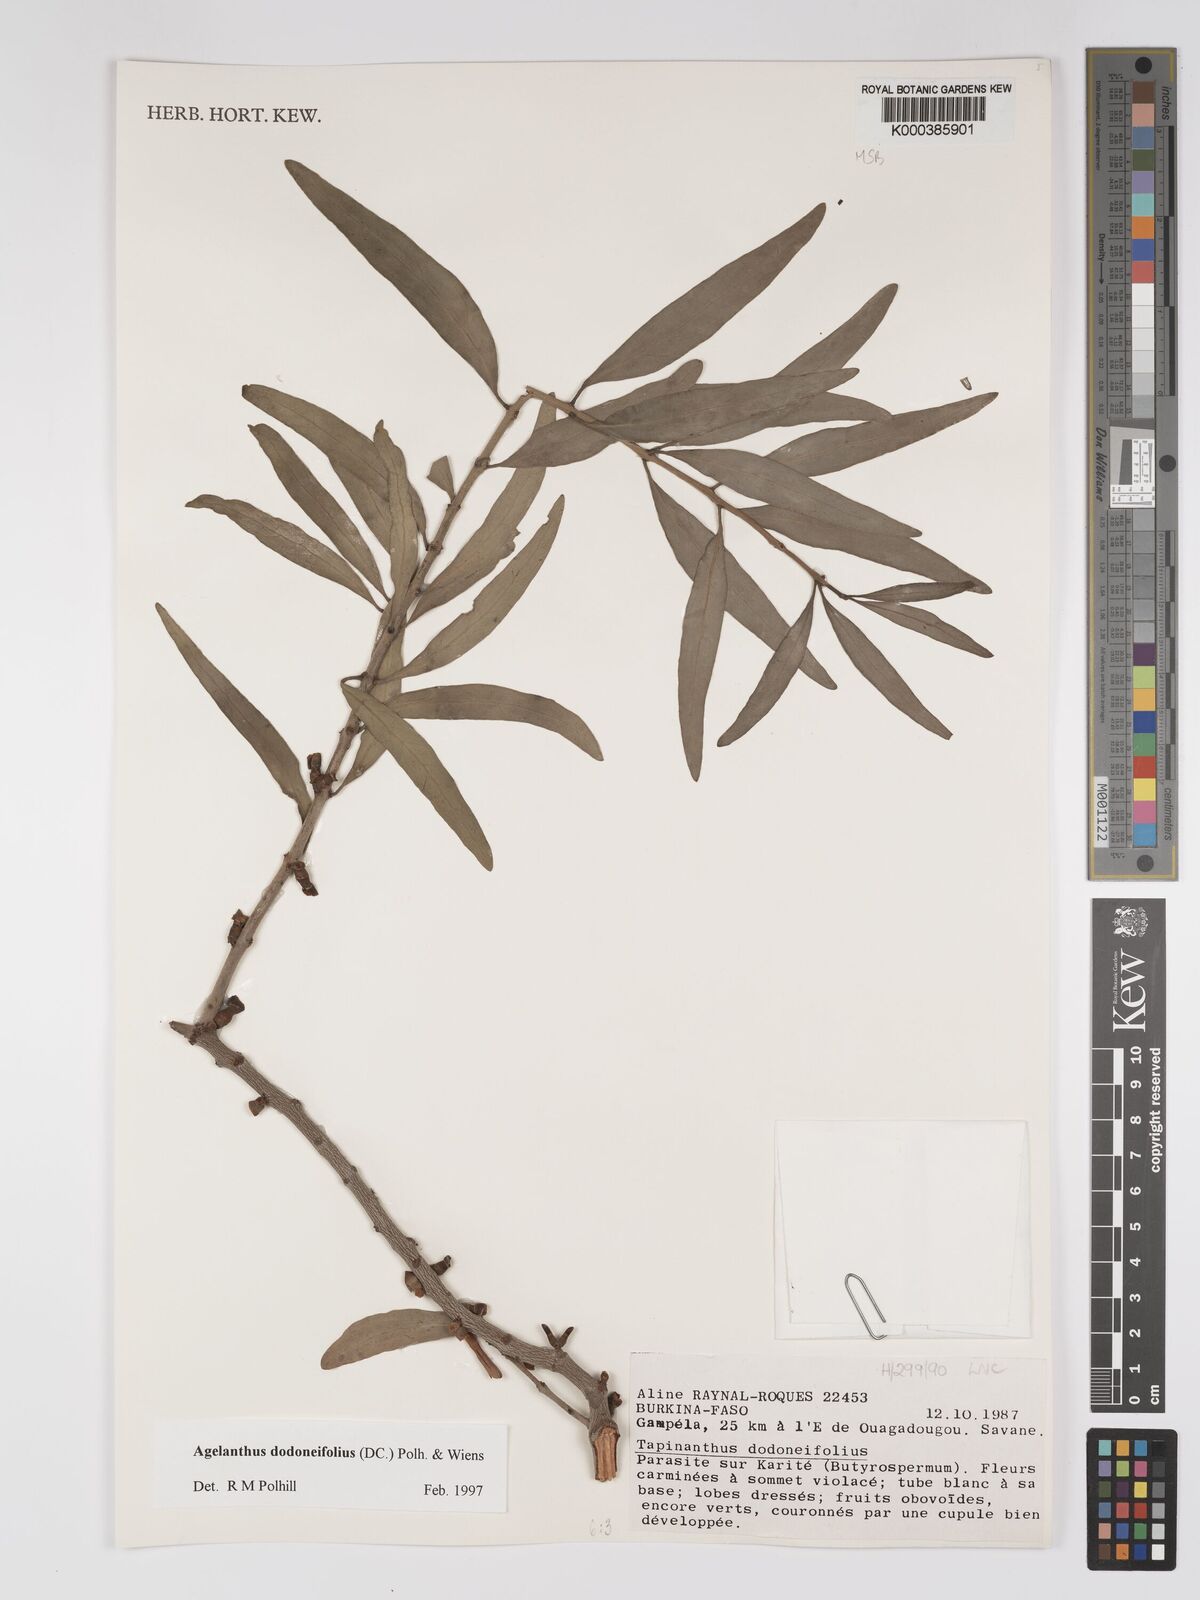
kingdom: Plantae
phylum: Tracheophyta
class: Magnoliopsida
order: Santalales
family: Loranthaceae
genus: Agelanthus
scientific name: Agelanthus dodoneifolius
